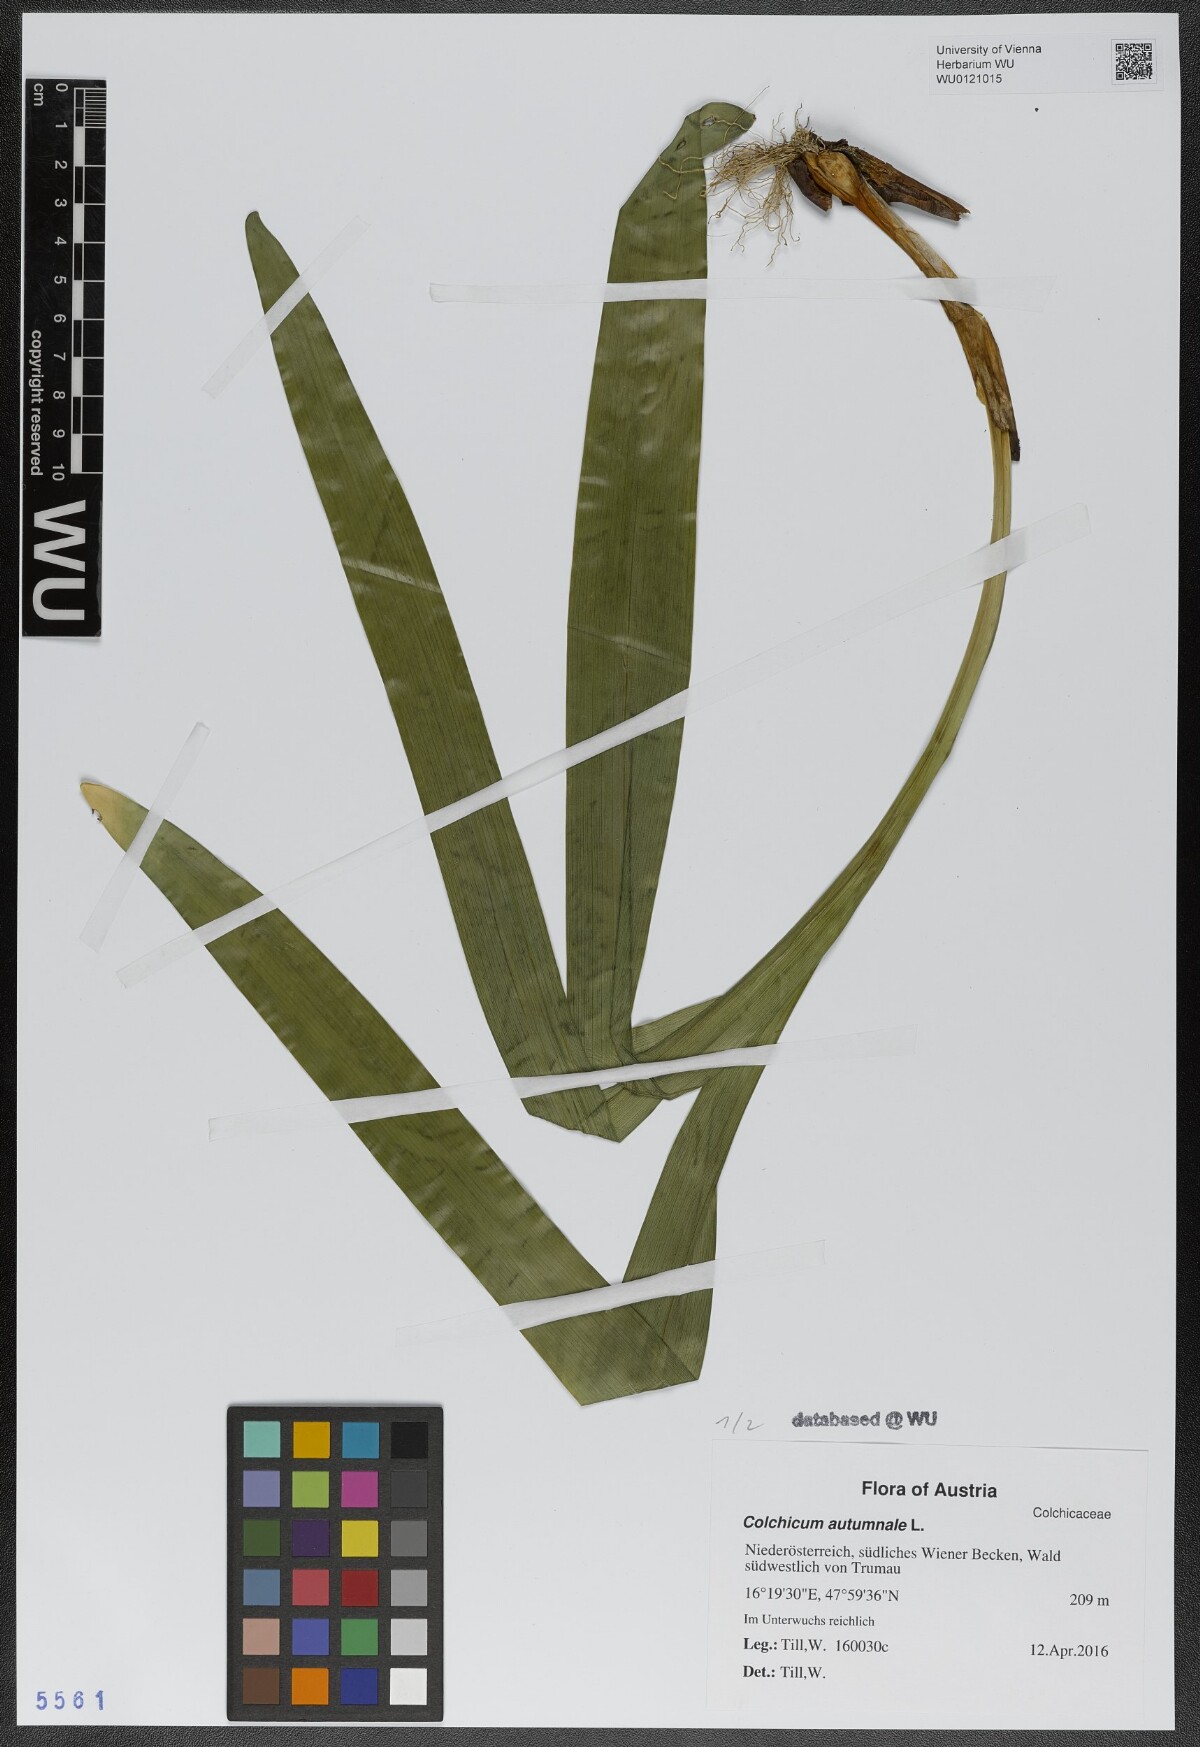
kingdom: Plantae
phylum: Tracheophyta
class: Liliopsida
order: Liliales
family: Colchicaceae
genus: Colchicum
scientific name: Colchicum autumnale
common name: Autumn crocus
